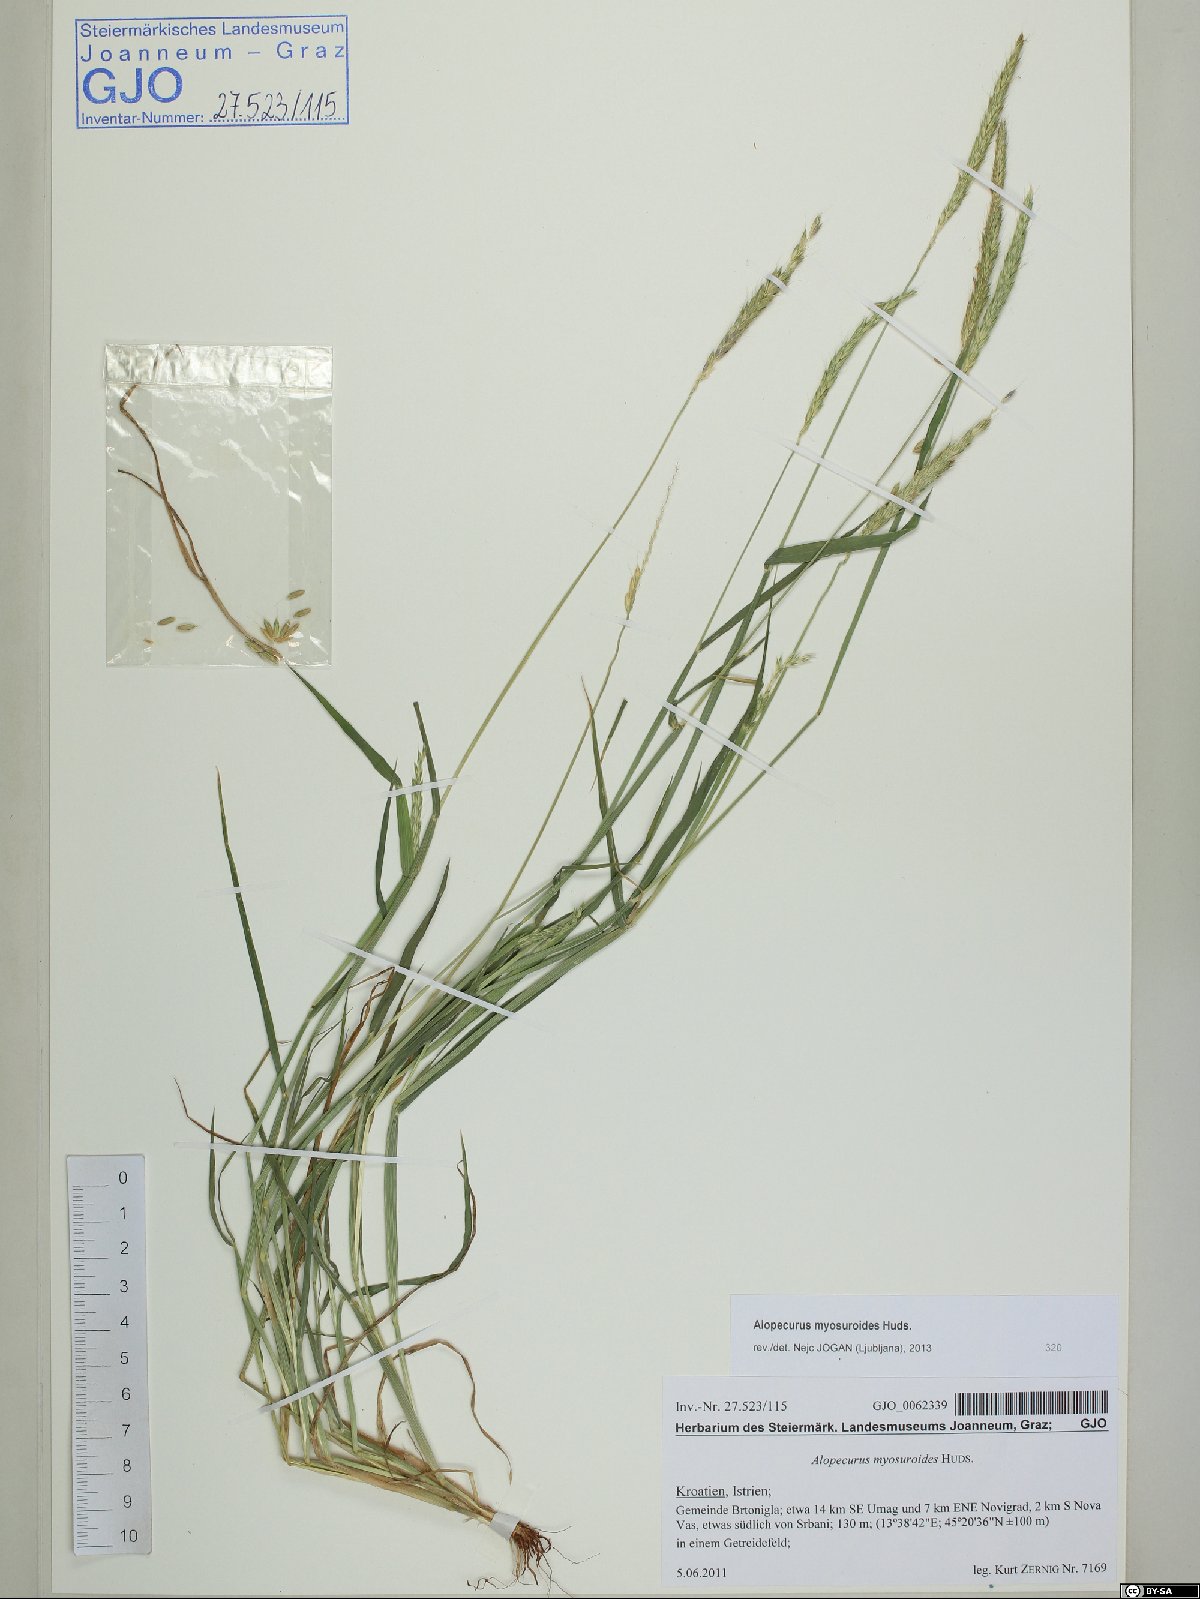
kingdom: Plantae
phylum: Tracheophyta
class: Liliopsida
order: Poales
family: Poaceae
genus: Alopecurus
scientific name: Alopecurus myosuroides
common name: Black-grass
